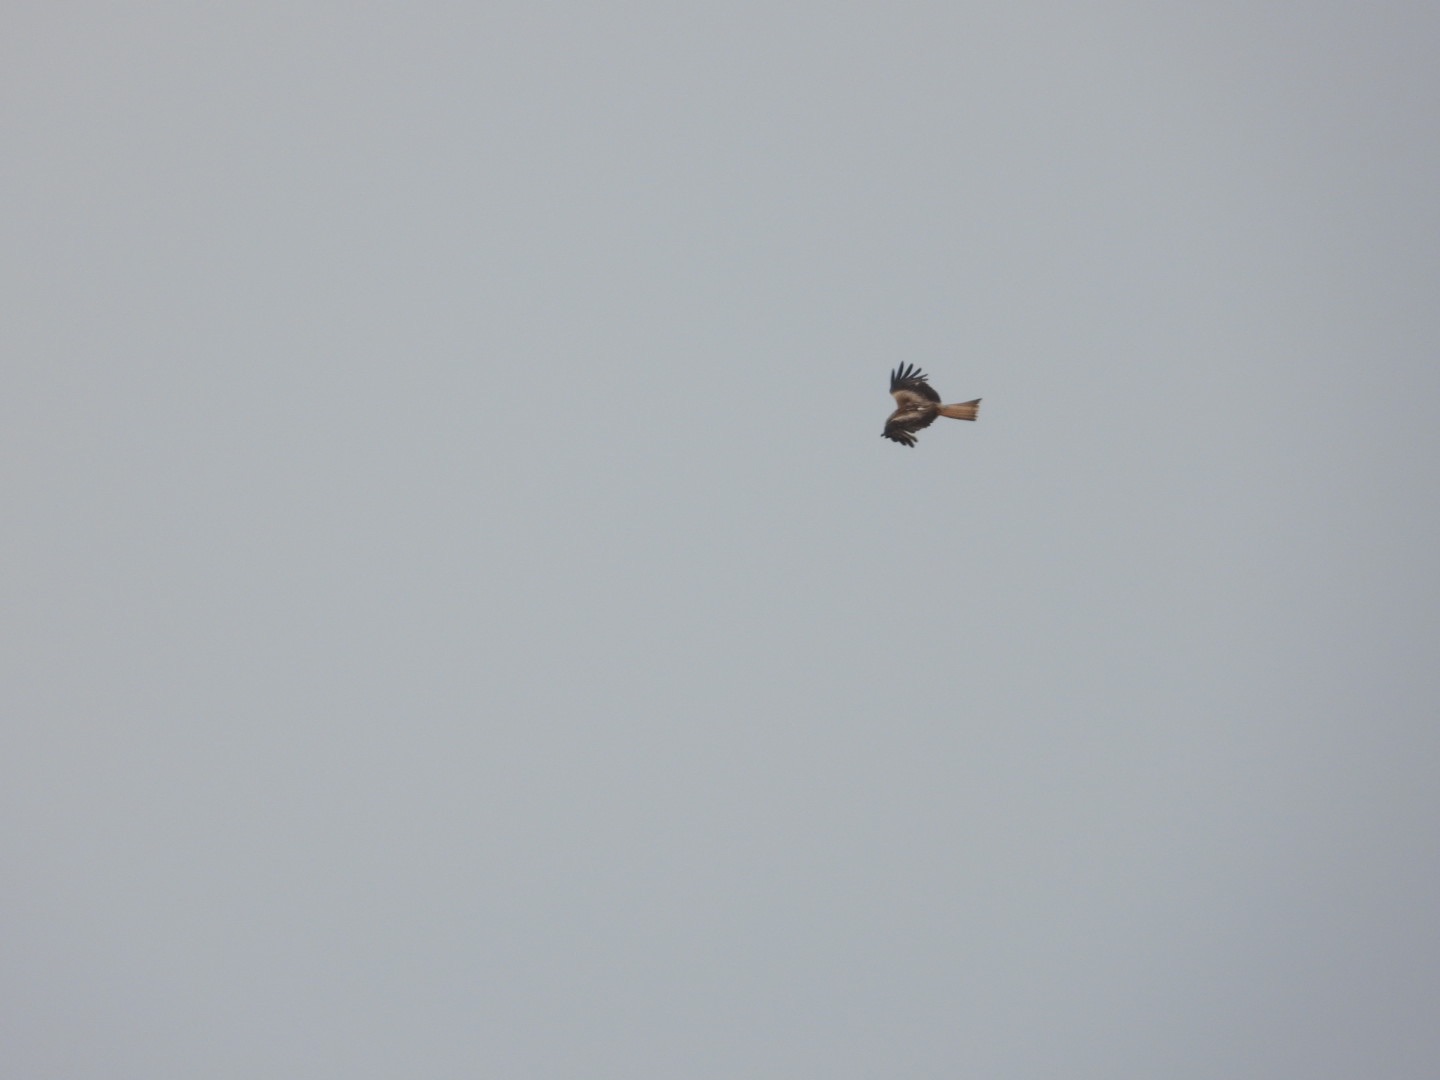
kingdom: Animalia
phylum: Chordata
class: Aves
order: Accipitriformes
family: Accipitridae
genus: Milvus
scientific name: Milvus milvus
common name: Rød glente
